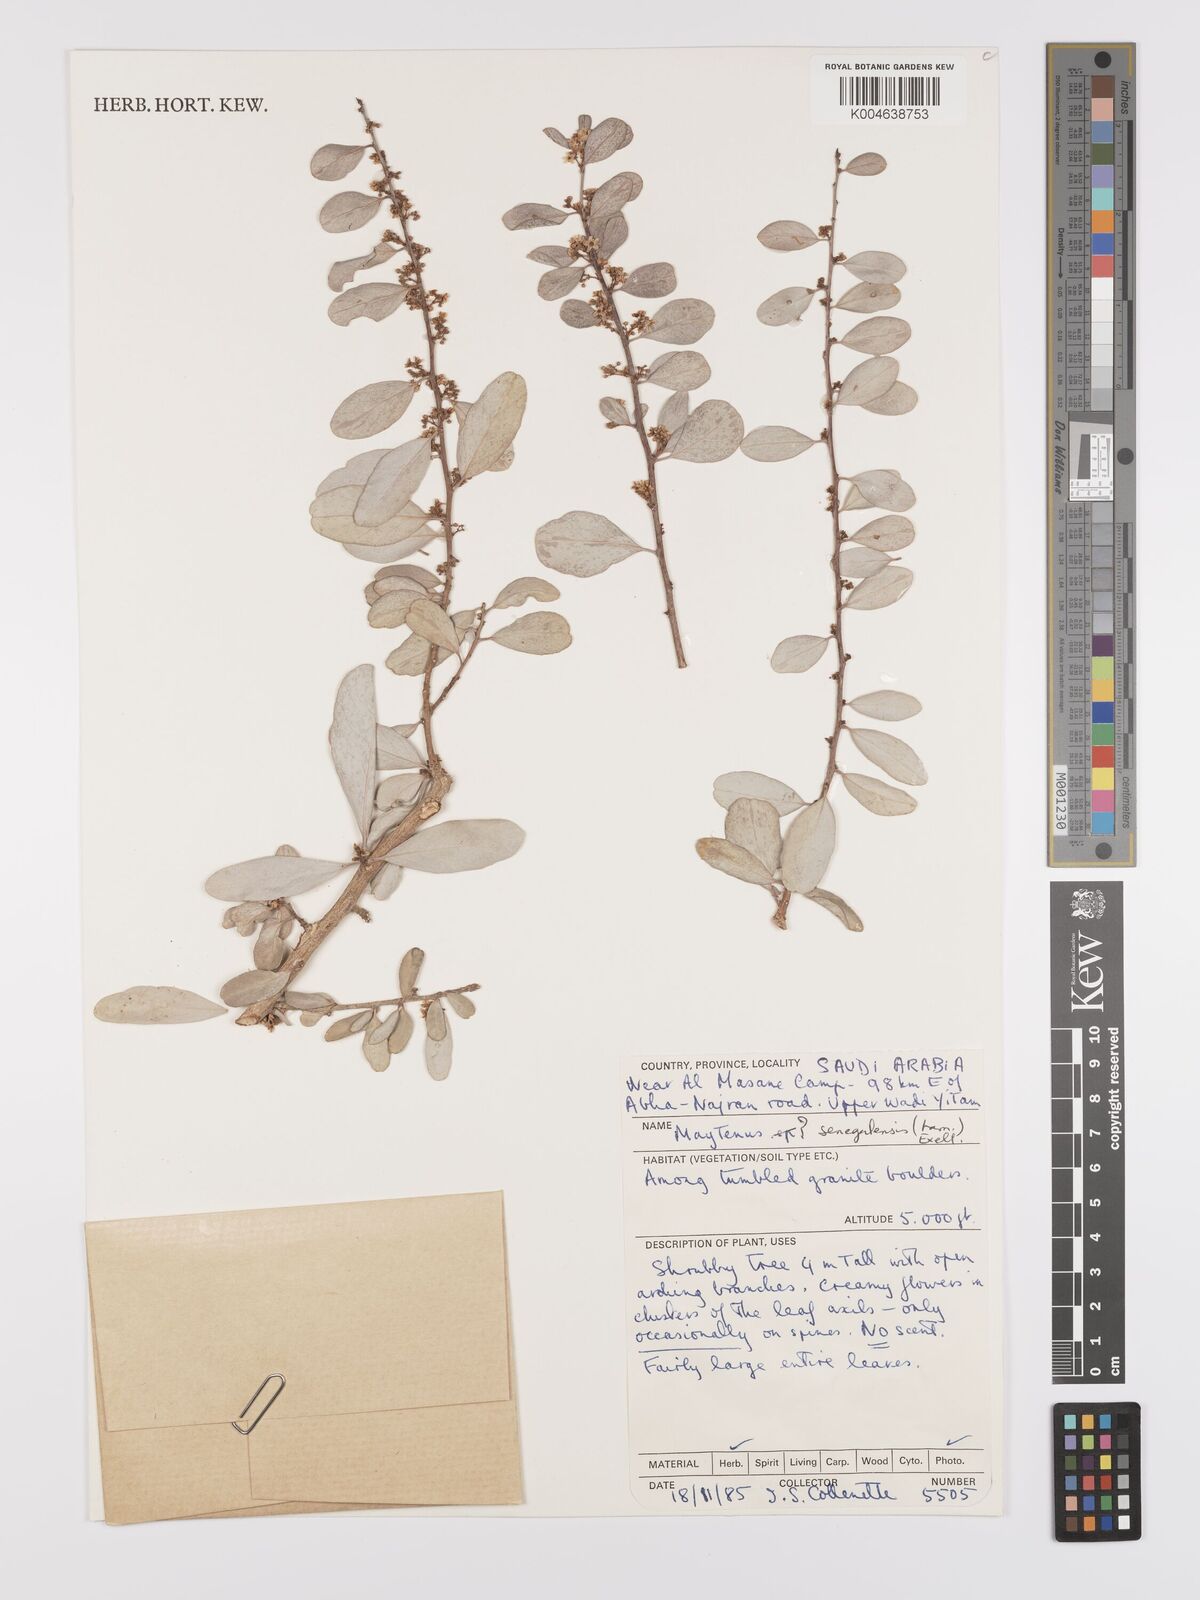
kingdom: Plantae
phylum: Tracheophyta
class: Magnoliopsida
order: Celastrales
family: Celastraceae
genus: Gymnosporia
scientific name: Gymnosporia senegalensis
